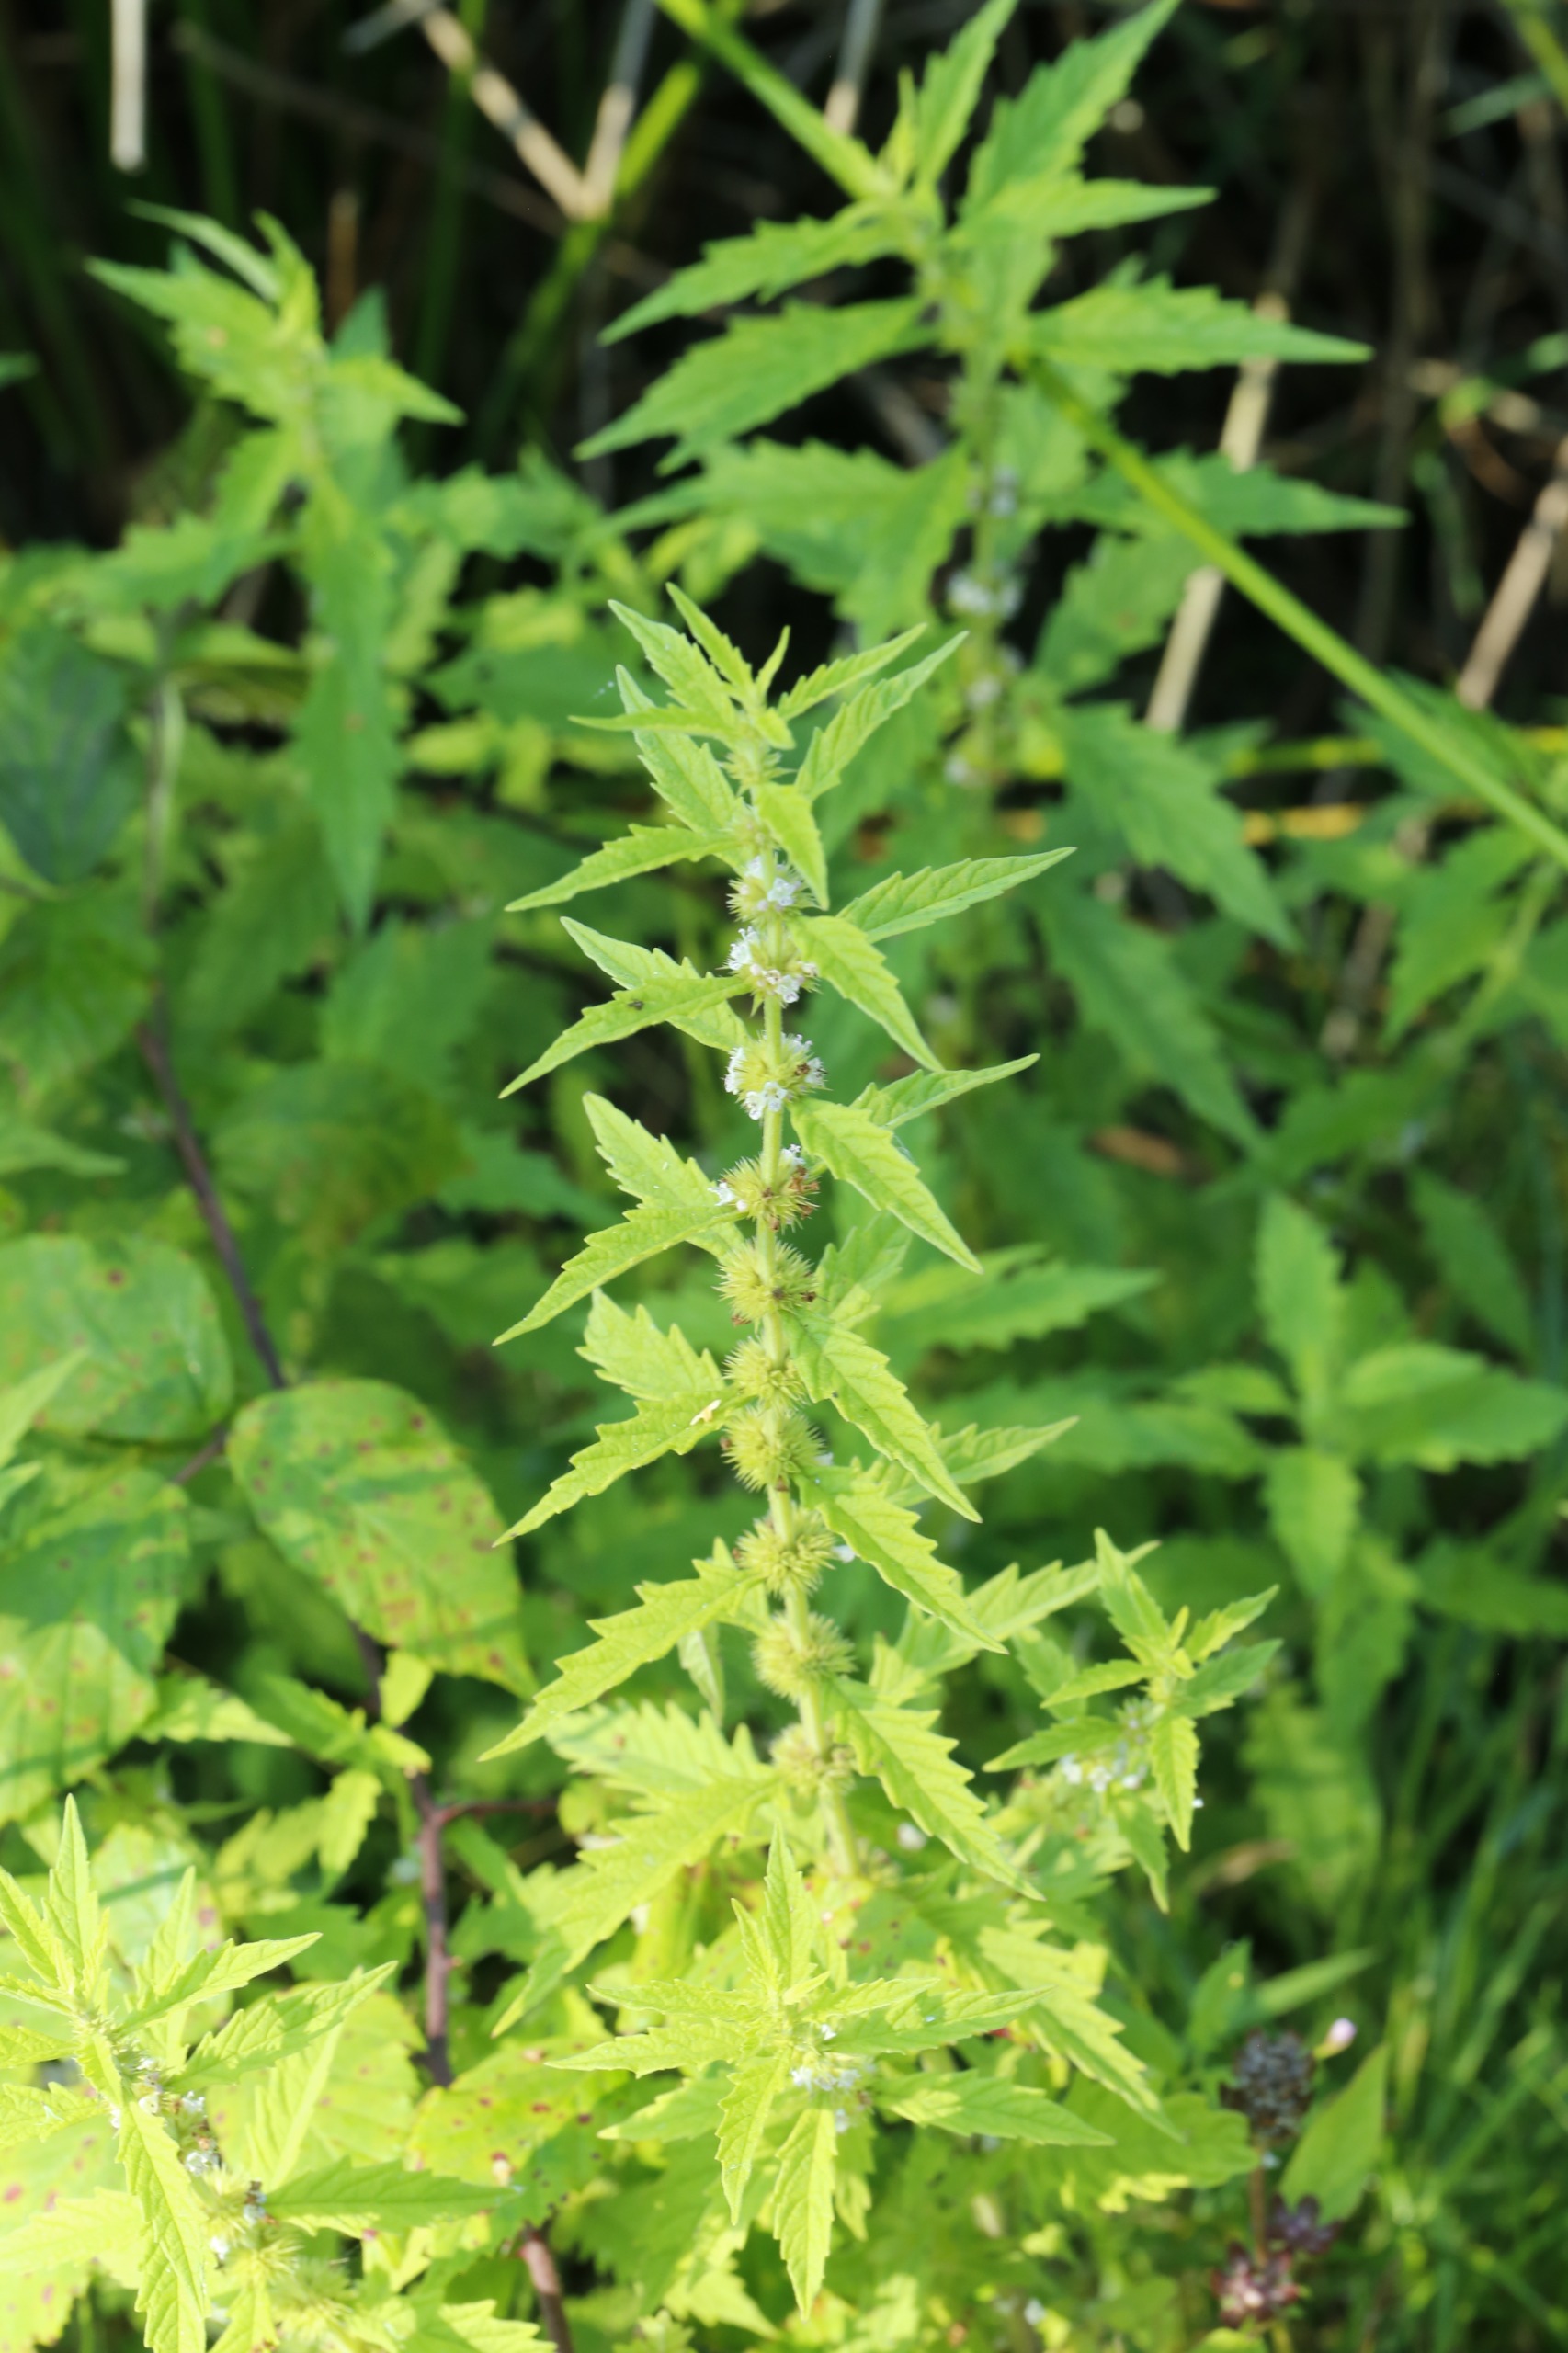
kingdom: Plantae
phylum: Tracheophyta
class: Magnoliopsida
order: Lamiales
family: Lamiaceae
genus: Lycopus
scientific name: Lycopus europaeus
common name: Sværtevæld
